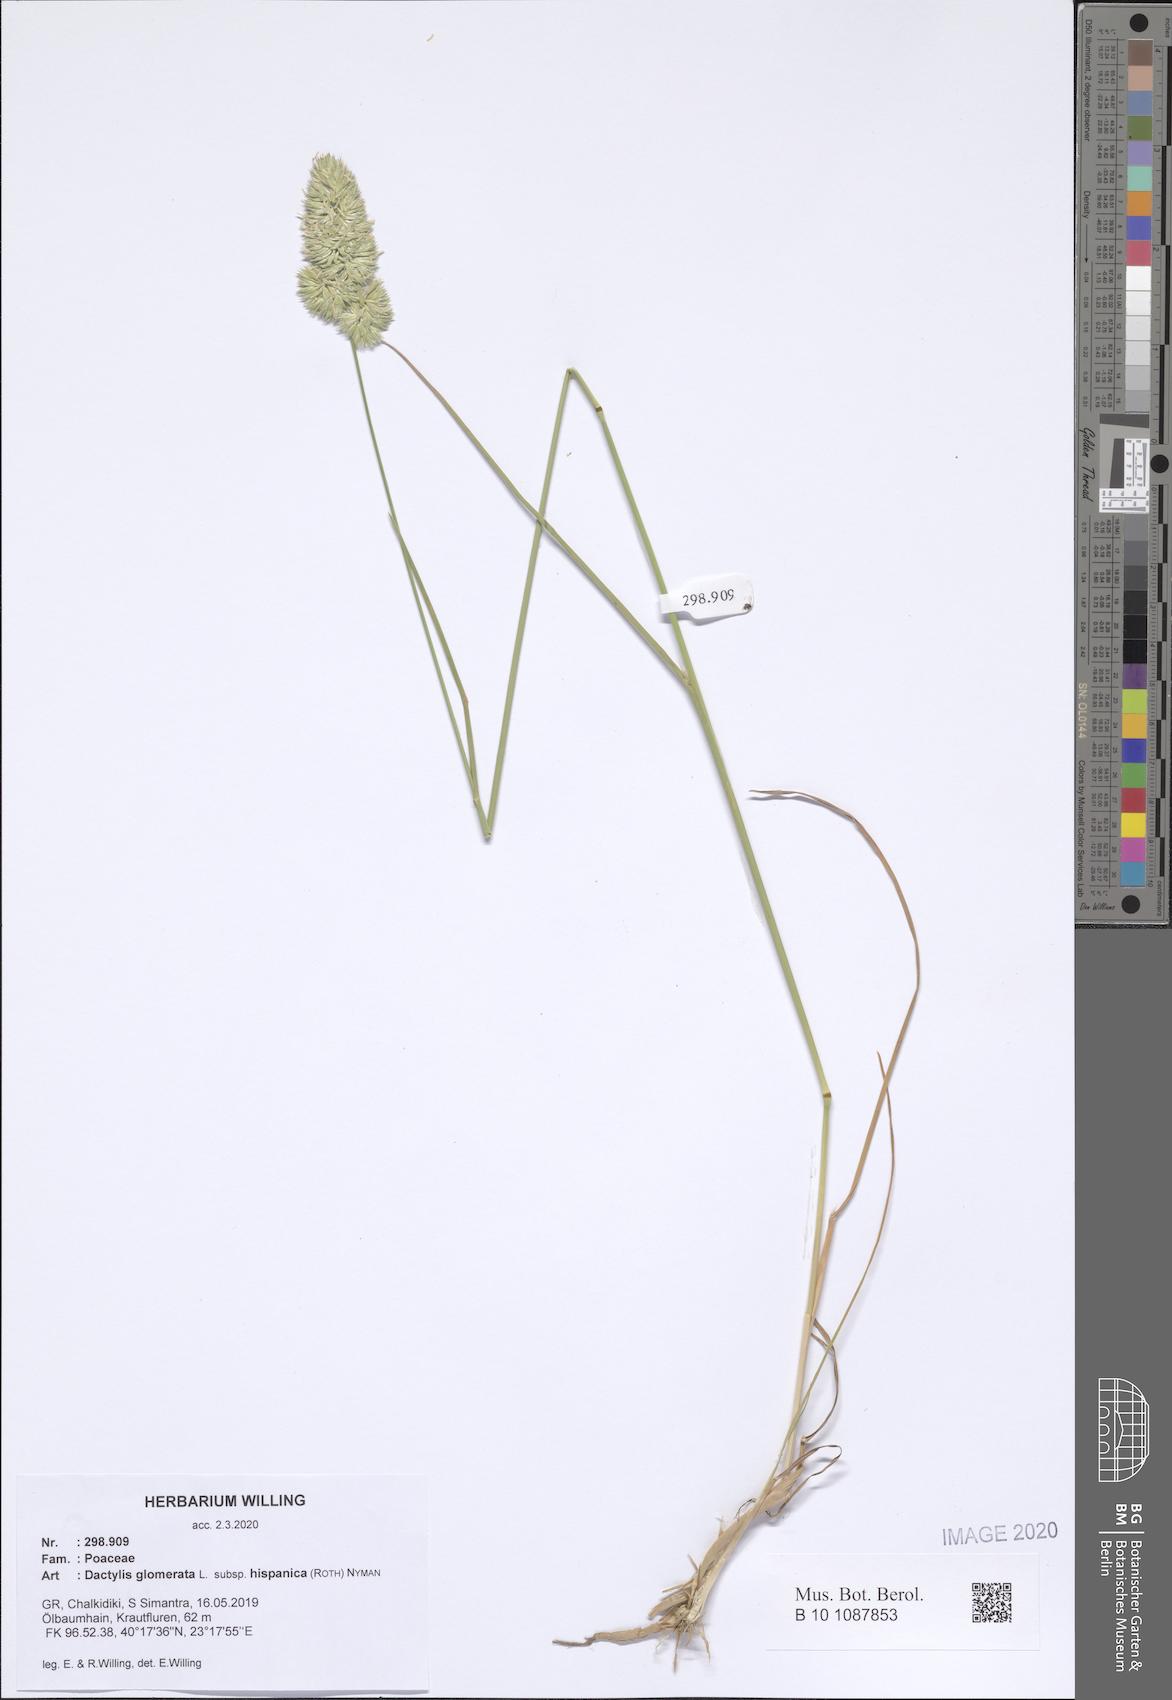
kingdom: Plantae
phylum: Tracheophyta
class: Liliopsida
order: Poales
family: Poaceae
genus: Dactylis
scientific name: Dactylis glomerata
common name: Orchardgrass
